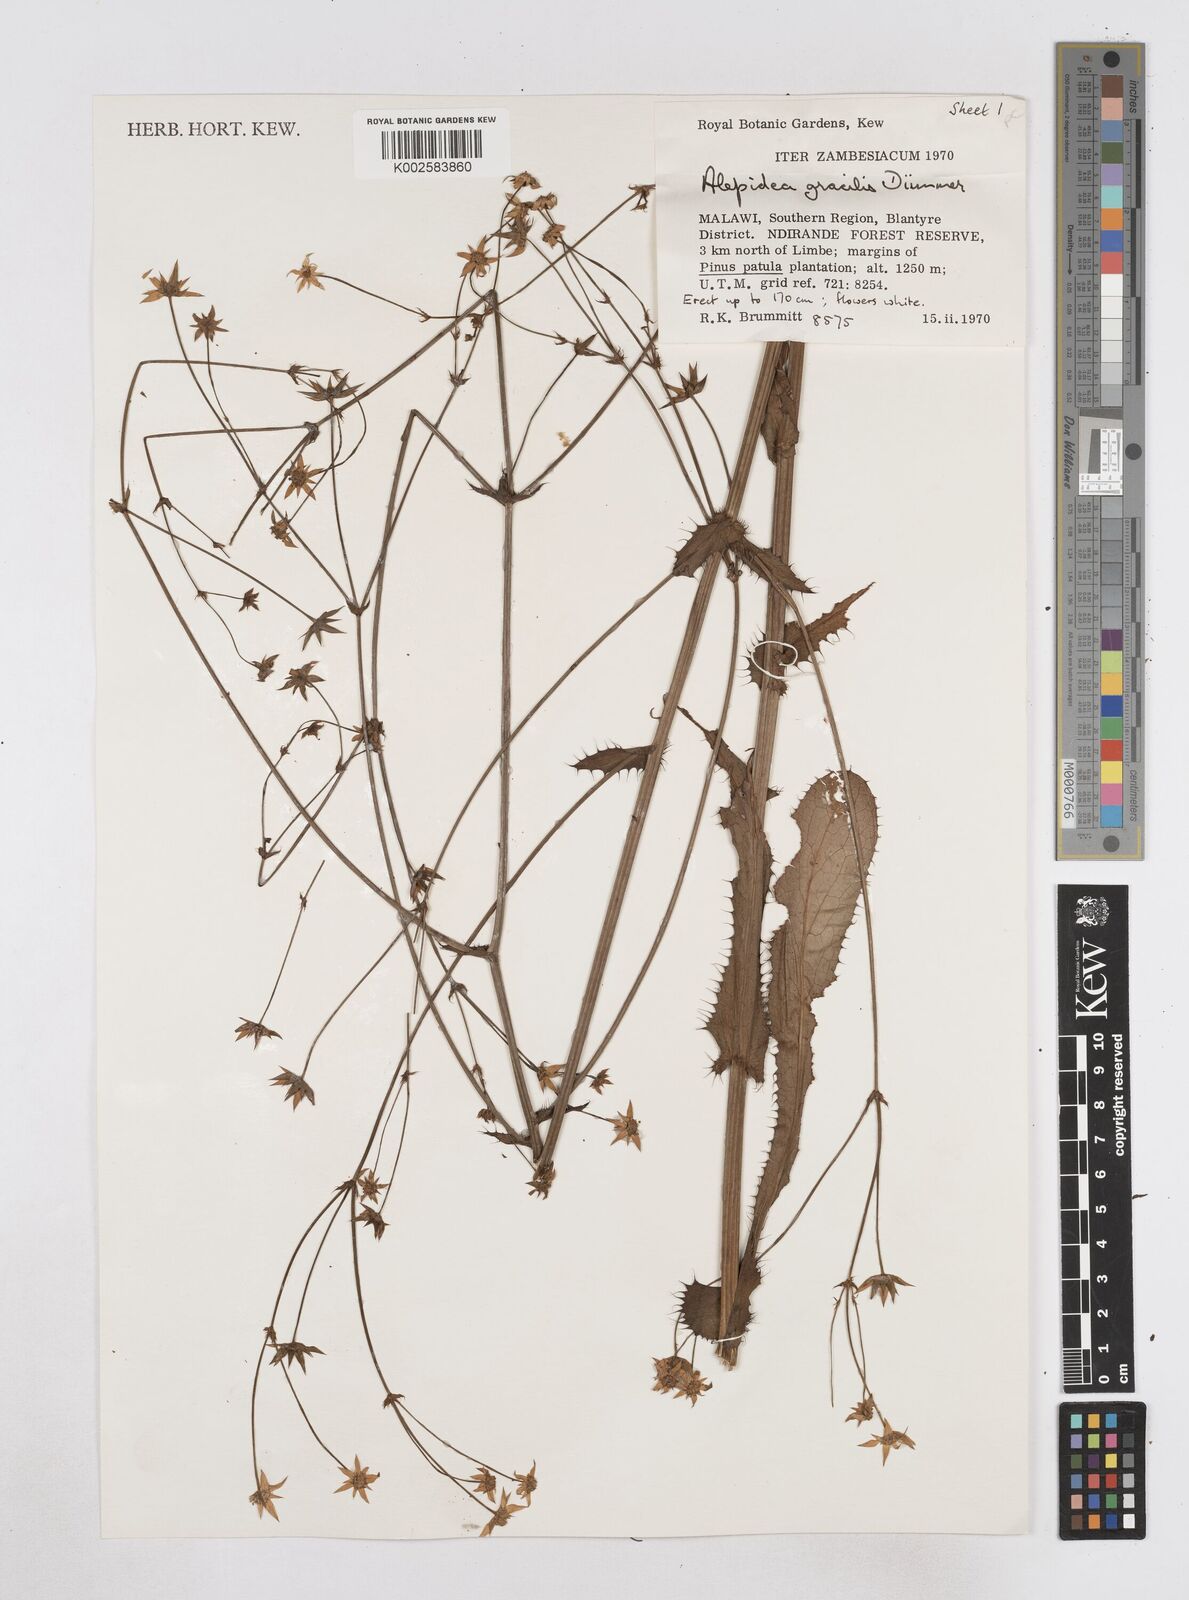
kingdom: Plantae
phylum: Tracheophyta
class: Magnoliopsida
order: Apiales
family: Apiaceae
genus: Alepidea
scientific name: Alepidea peduncularis
